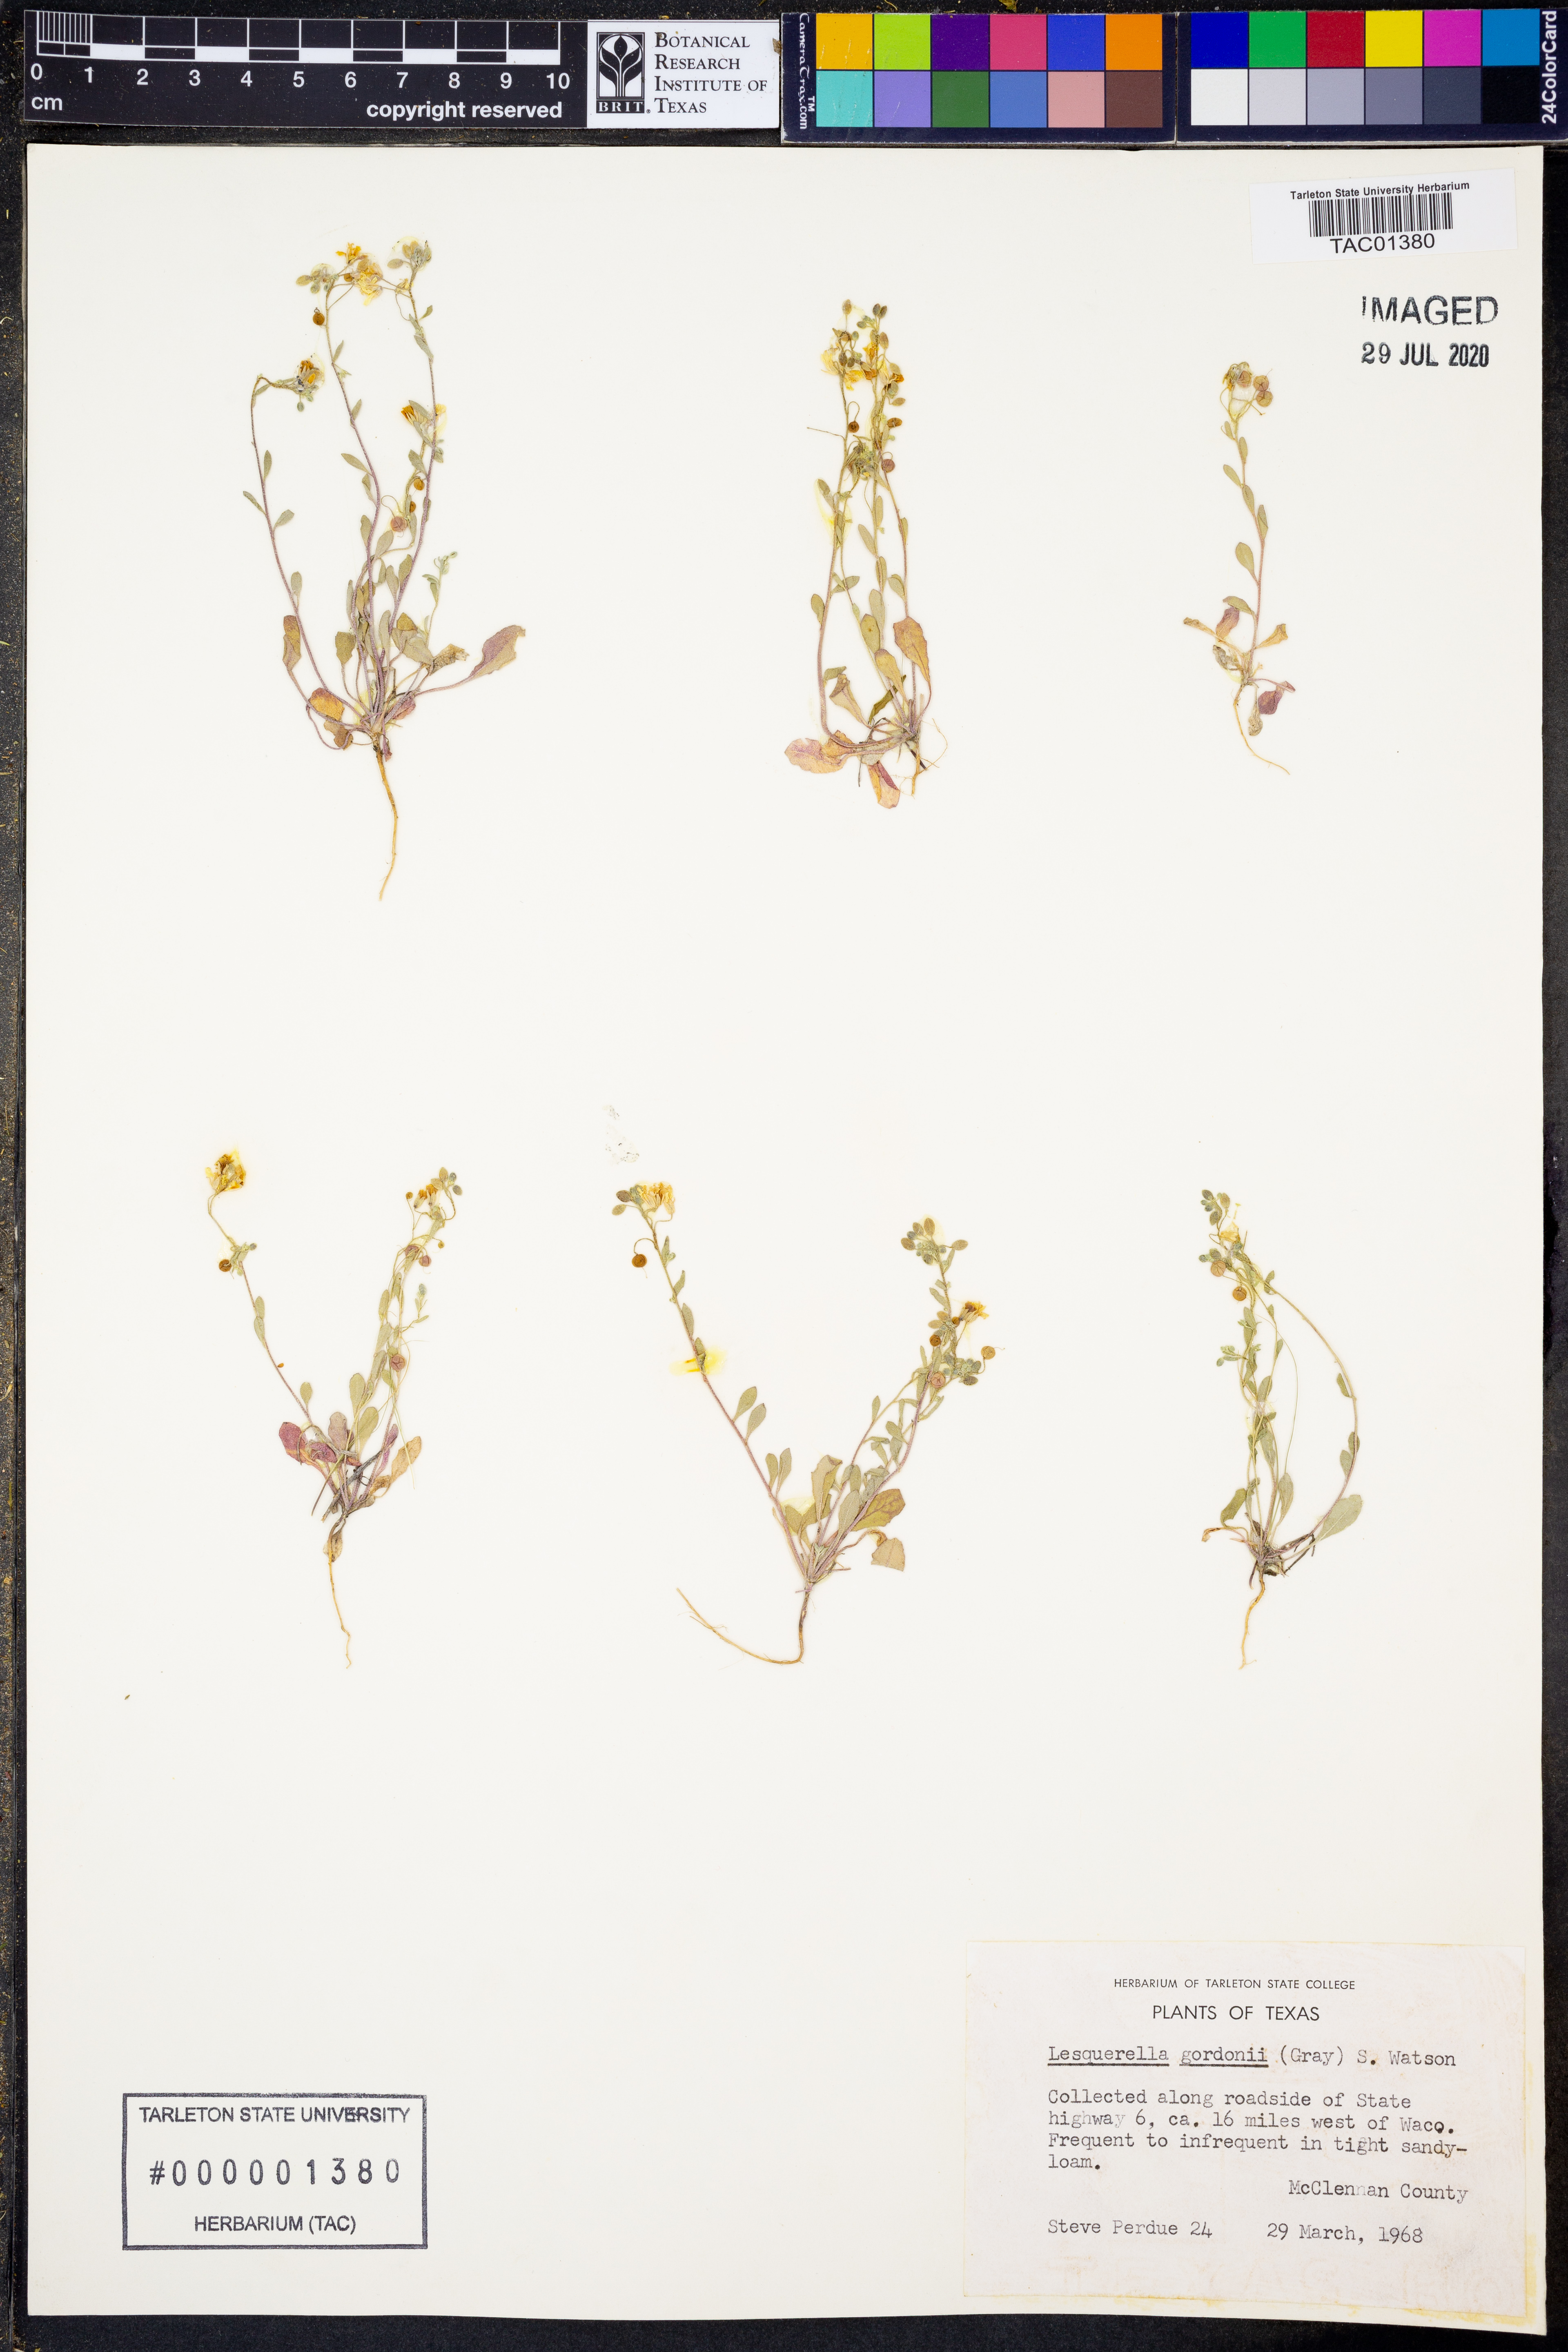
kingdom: Plantae
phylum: Tracheophyta
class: Magnoliopsida
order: Brassicales
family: Brassicaceae
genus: Physaria
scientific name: Physaria gordonii
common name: Gordon's bladderpod
